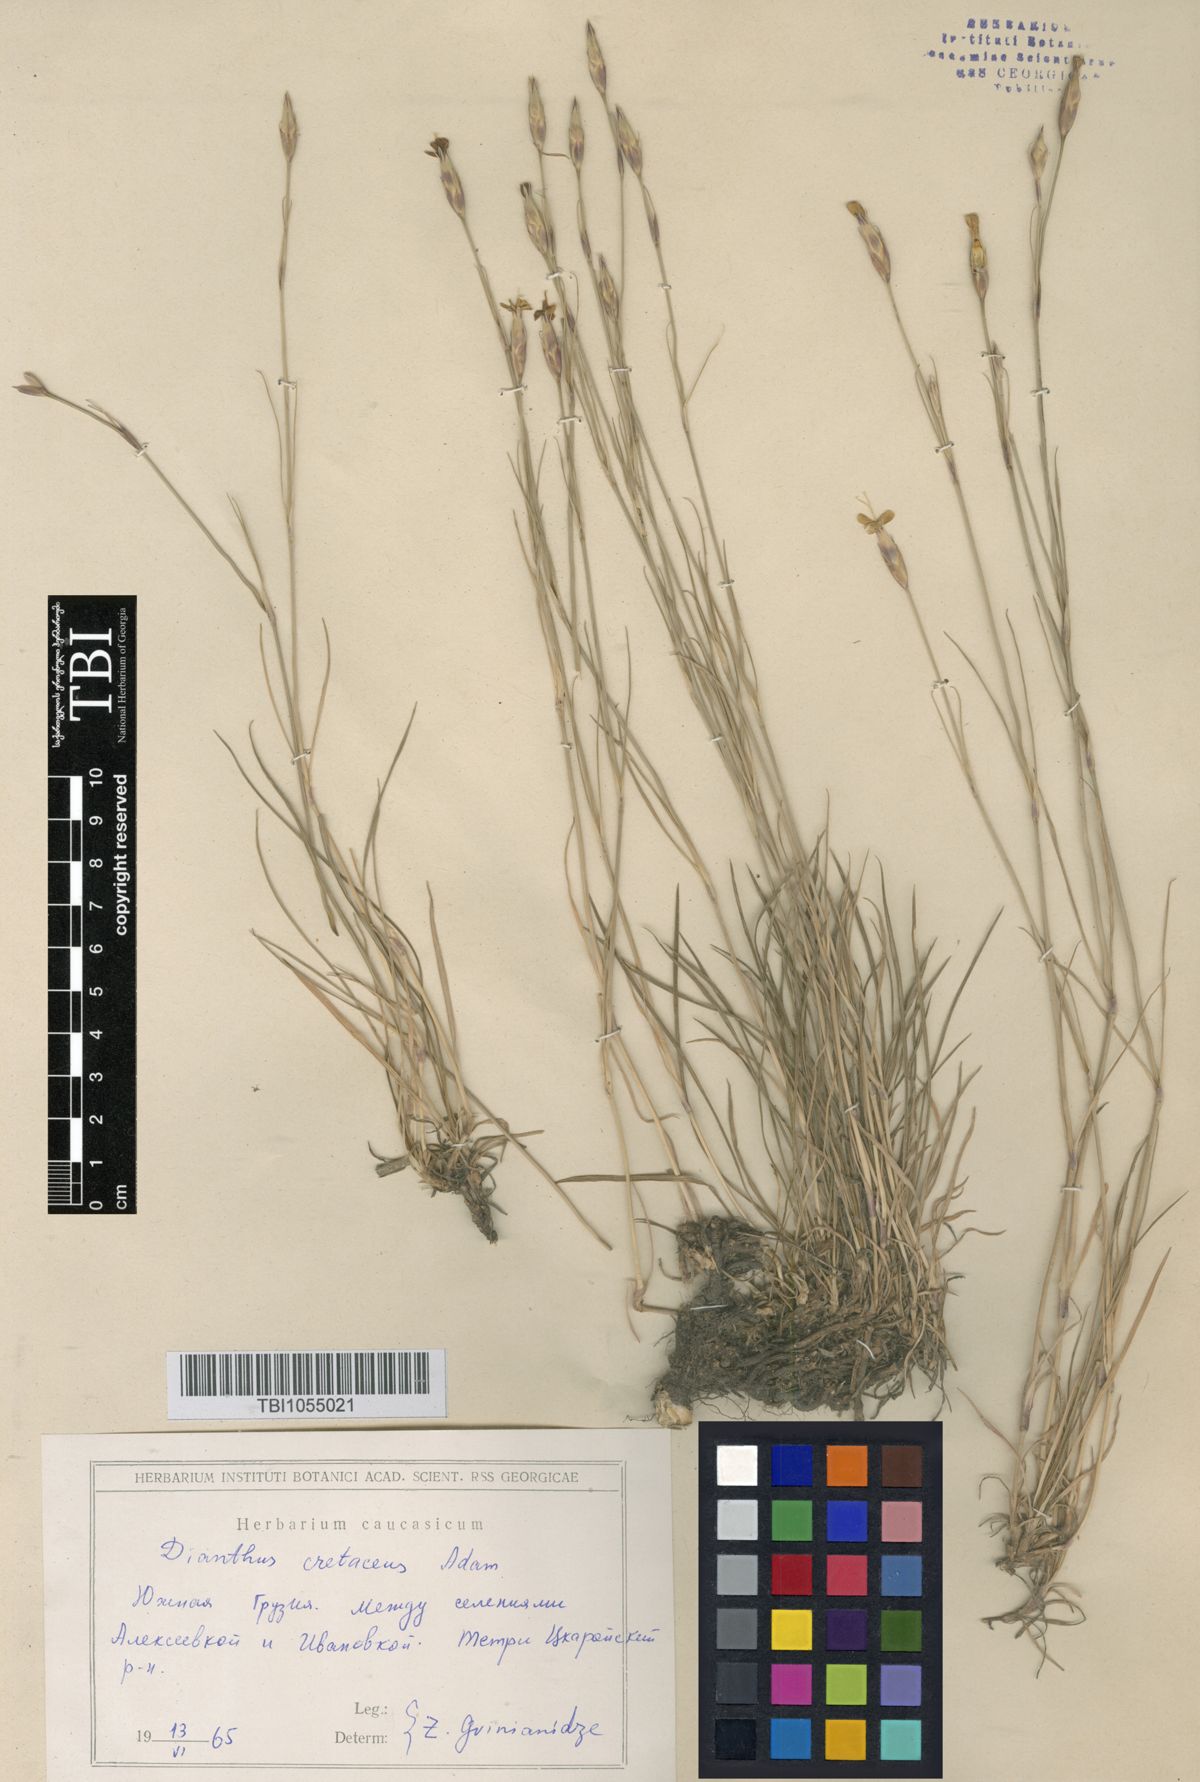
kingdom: Plantae
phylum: Tracheophyta
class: Magnoliopsida
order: Caryophyllales
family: Caryophyllaceae
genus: Dianthus
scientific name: Dianthus cretaceus
